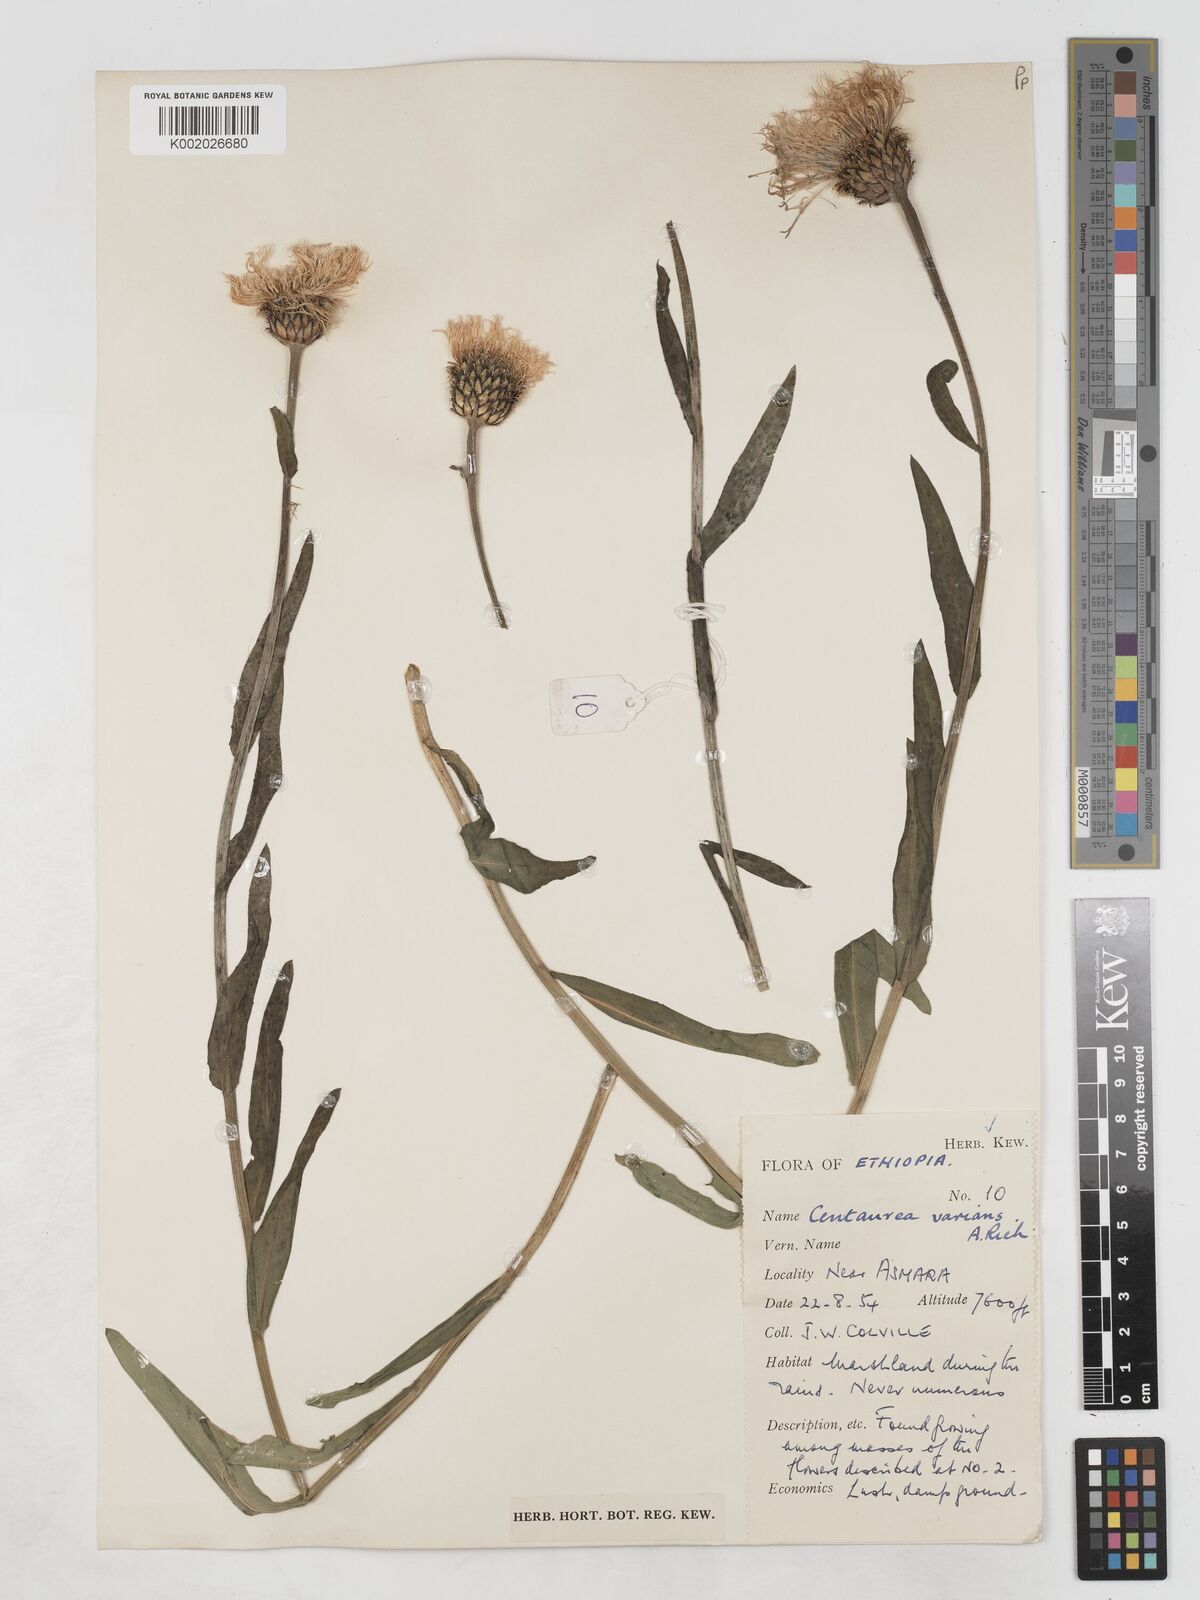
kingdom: Plantae
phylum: Tracheophyta
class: Magnoliopsida
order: Asterales
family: Asteraceae
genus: Plectocephalus
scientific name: Plectocephalus varians
